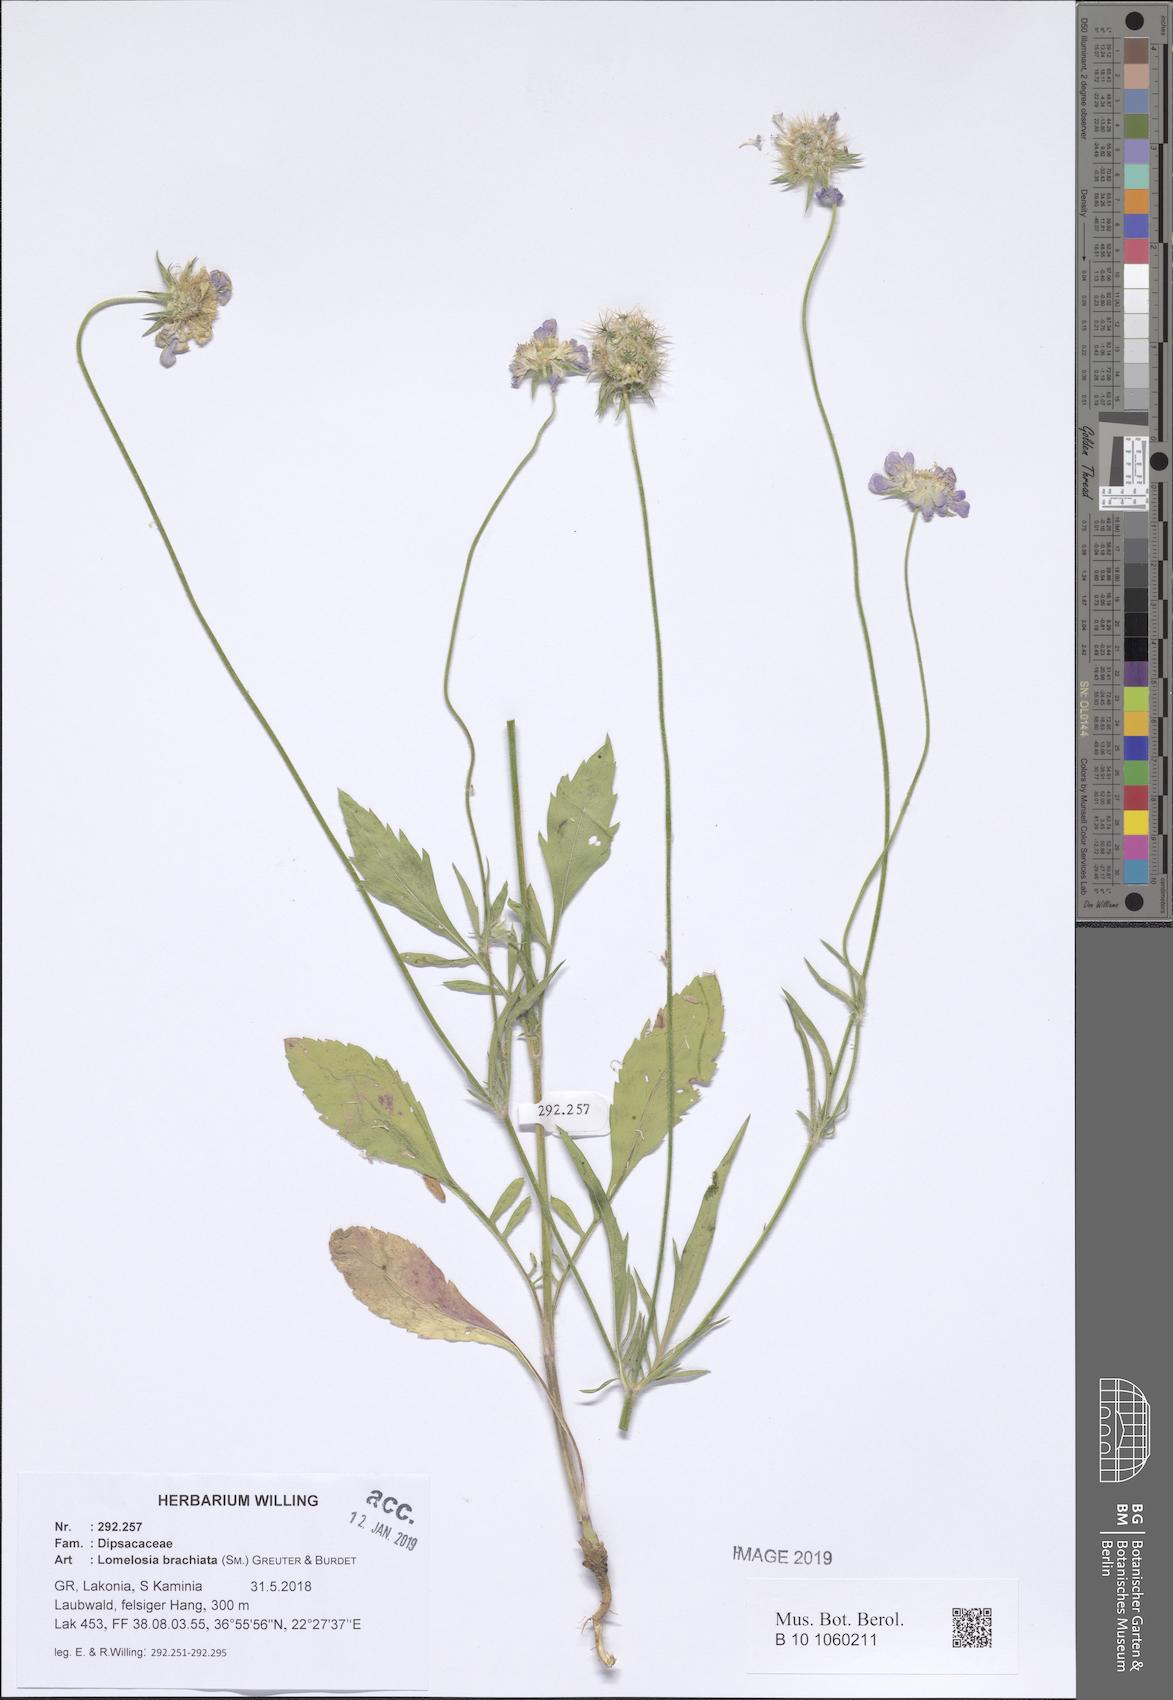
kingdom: Plantae
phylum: Tracheophyta
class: Magnoliopsida
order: Dipsacales
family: Caprifoliaceae
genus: Lomelosia
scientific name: Lomelosia brachiata
